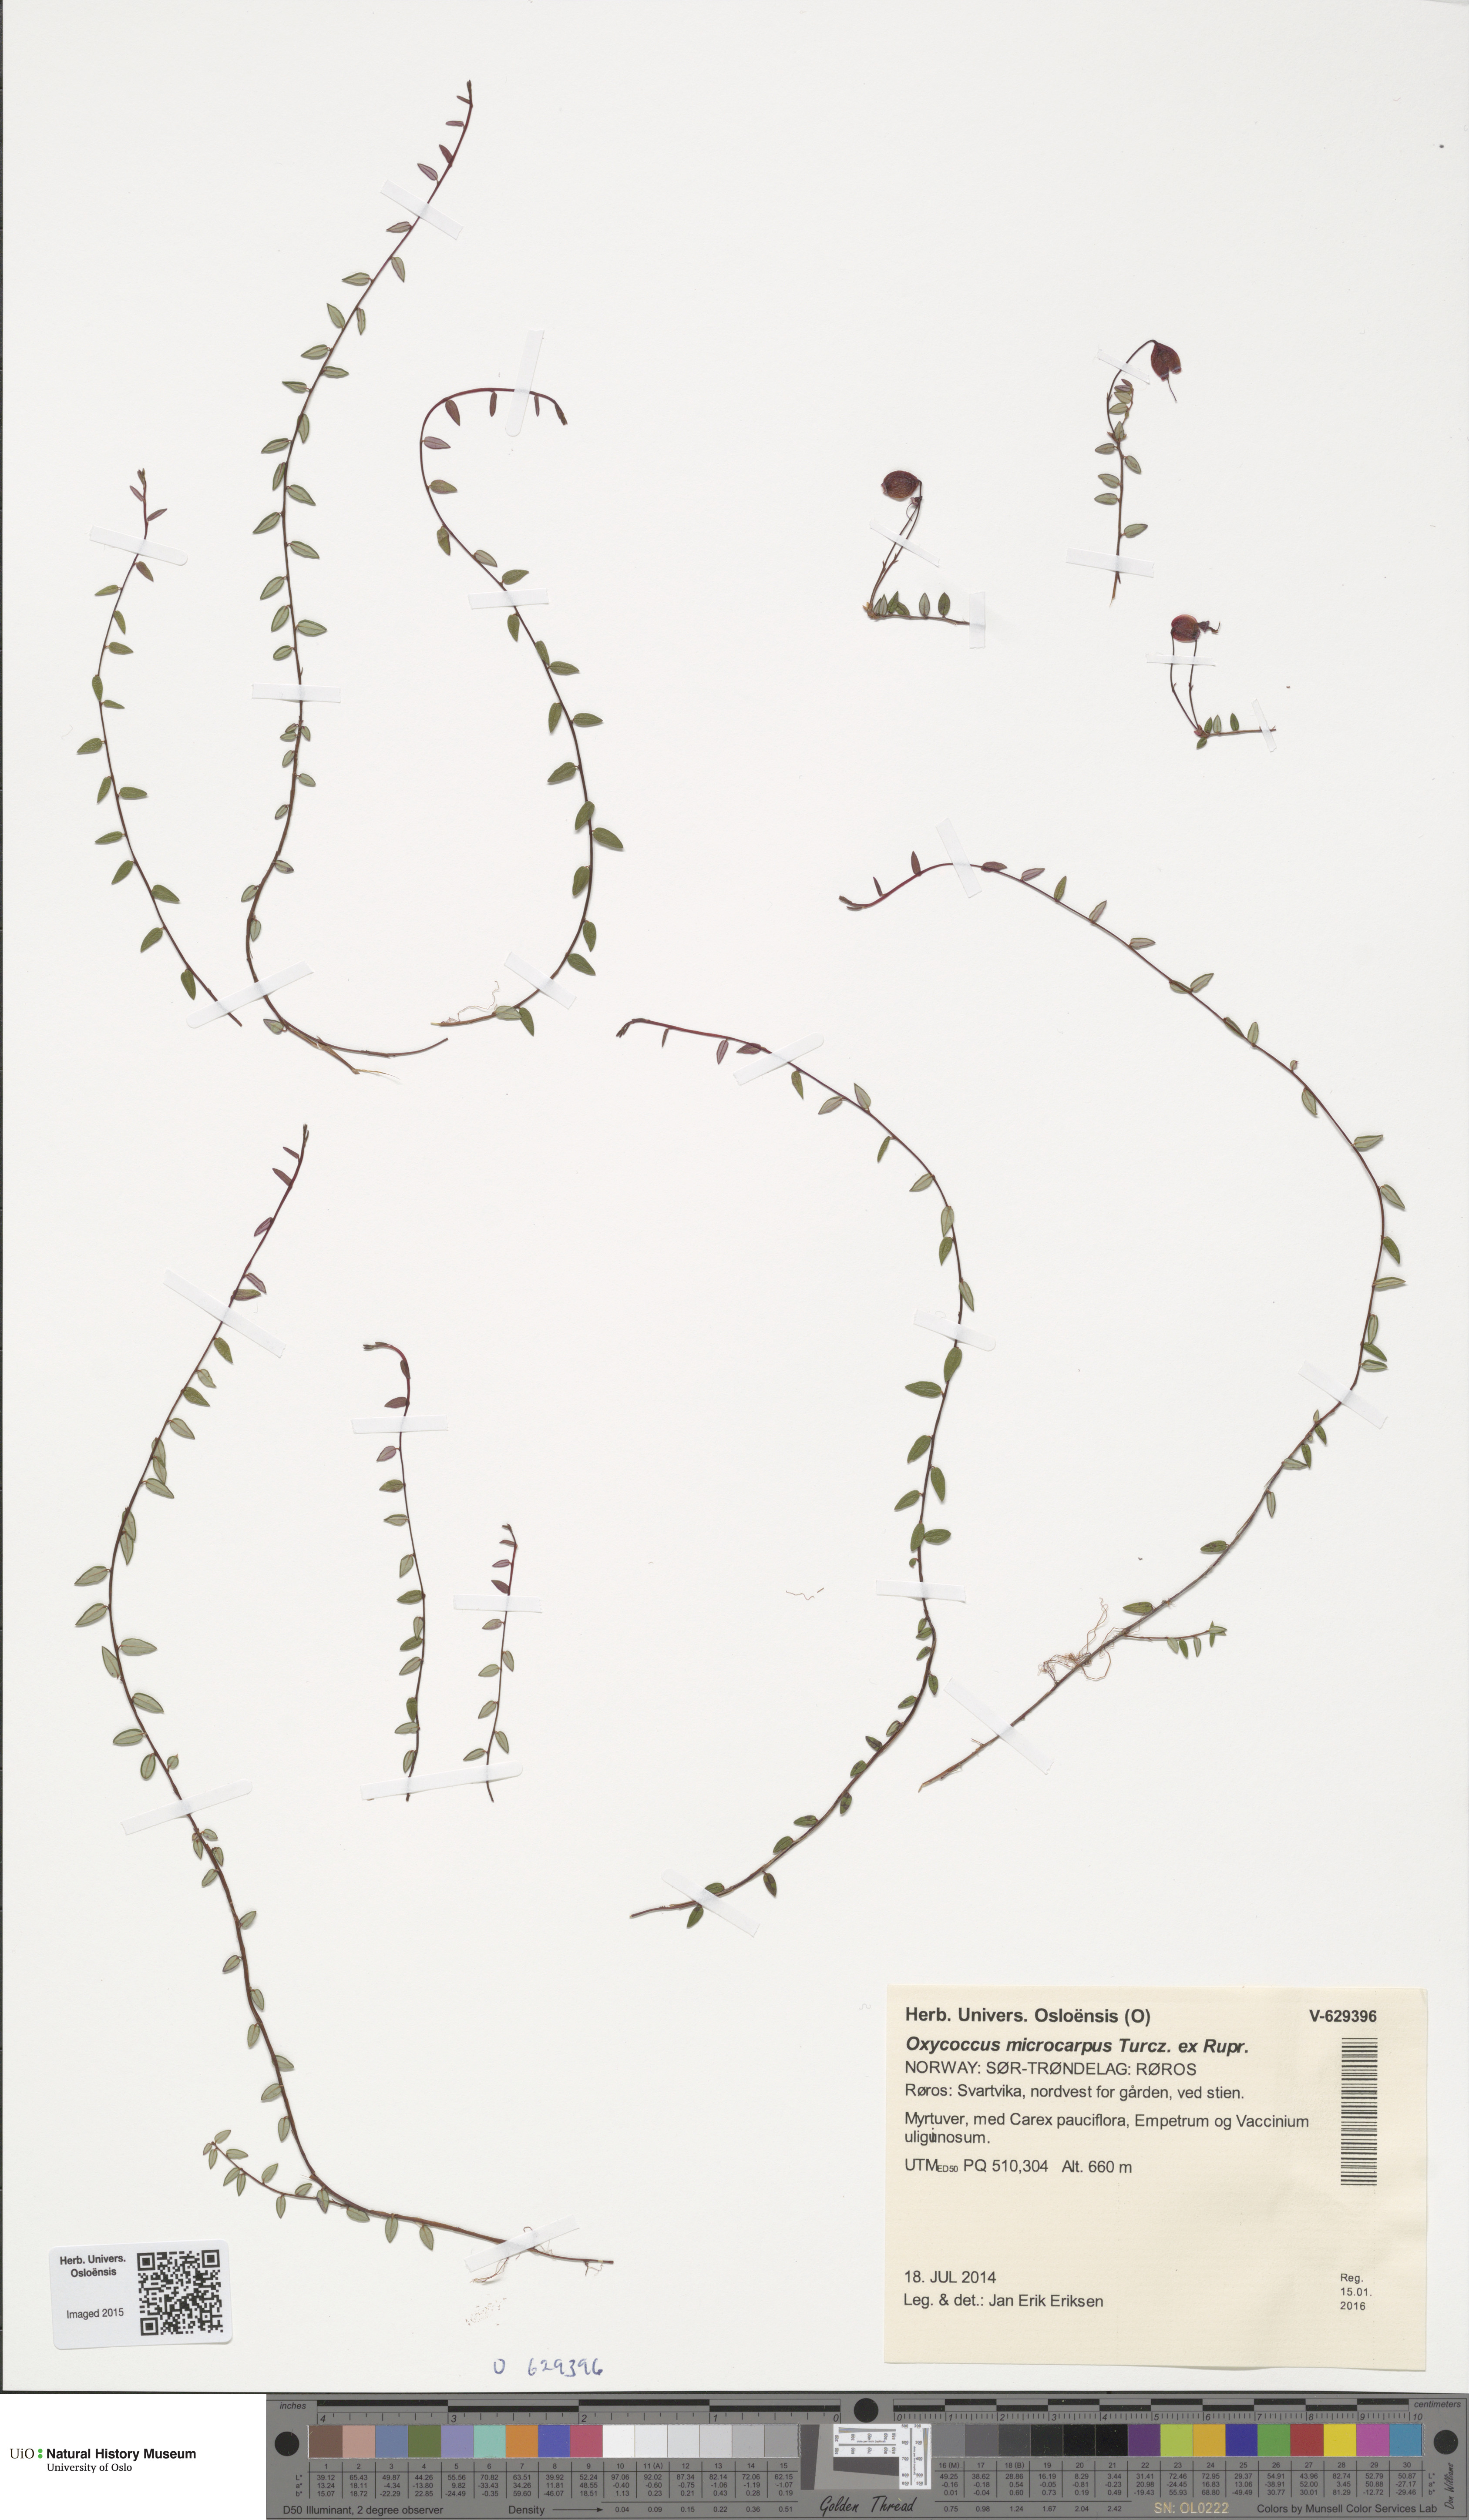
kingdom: Plantae
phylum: Tracheophyta
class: Magnoliopsida
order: Ericales
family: Ericaceae
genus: Vaccinium
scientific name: Vaccinium microcarpum
